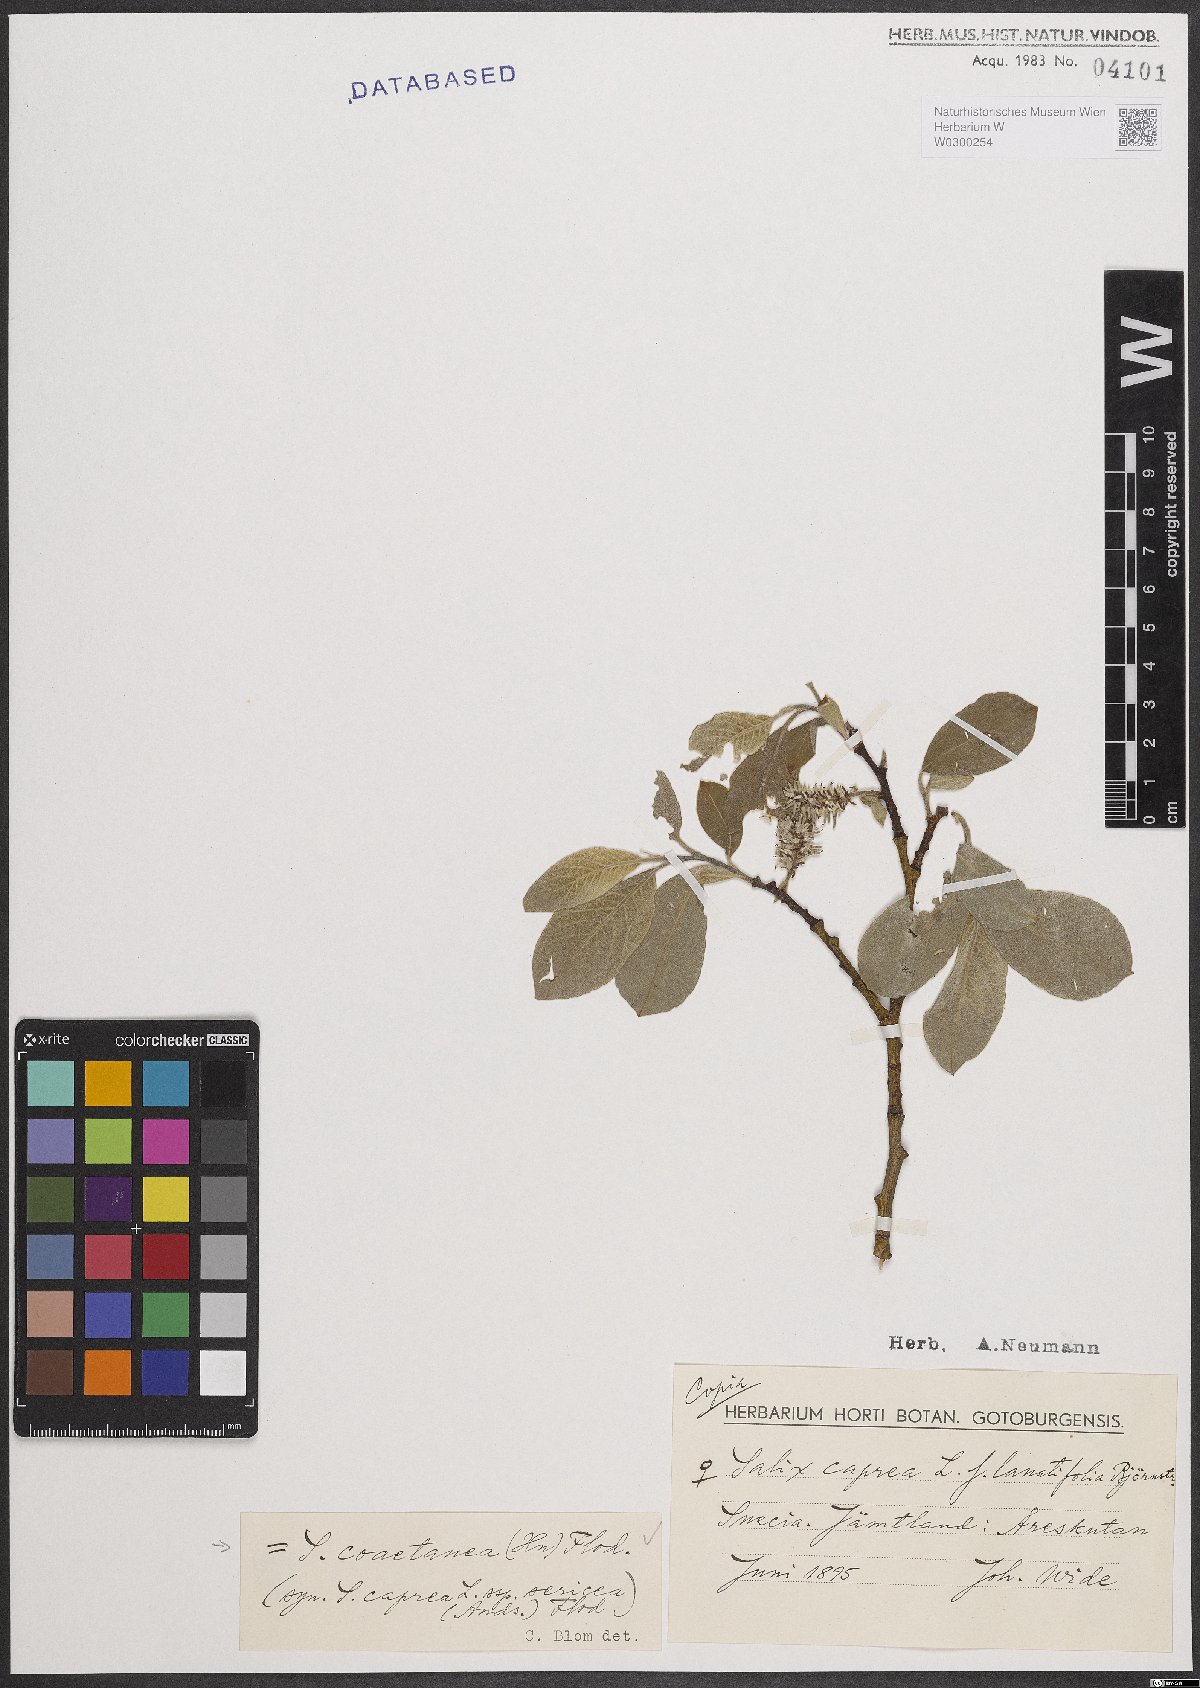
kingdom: Plantae
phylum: Tracheophyta
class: Magnoliopsida
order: Malpighiales
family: Salicaceae
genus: Salix
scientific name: Salix caprea
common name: Goat willow
